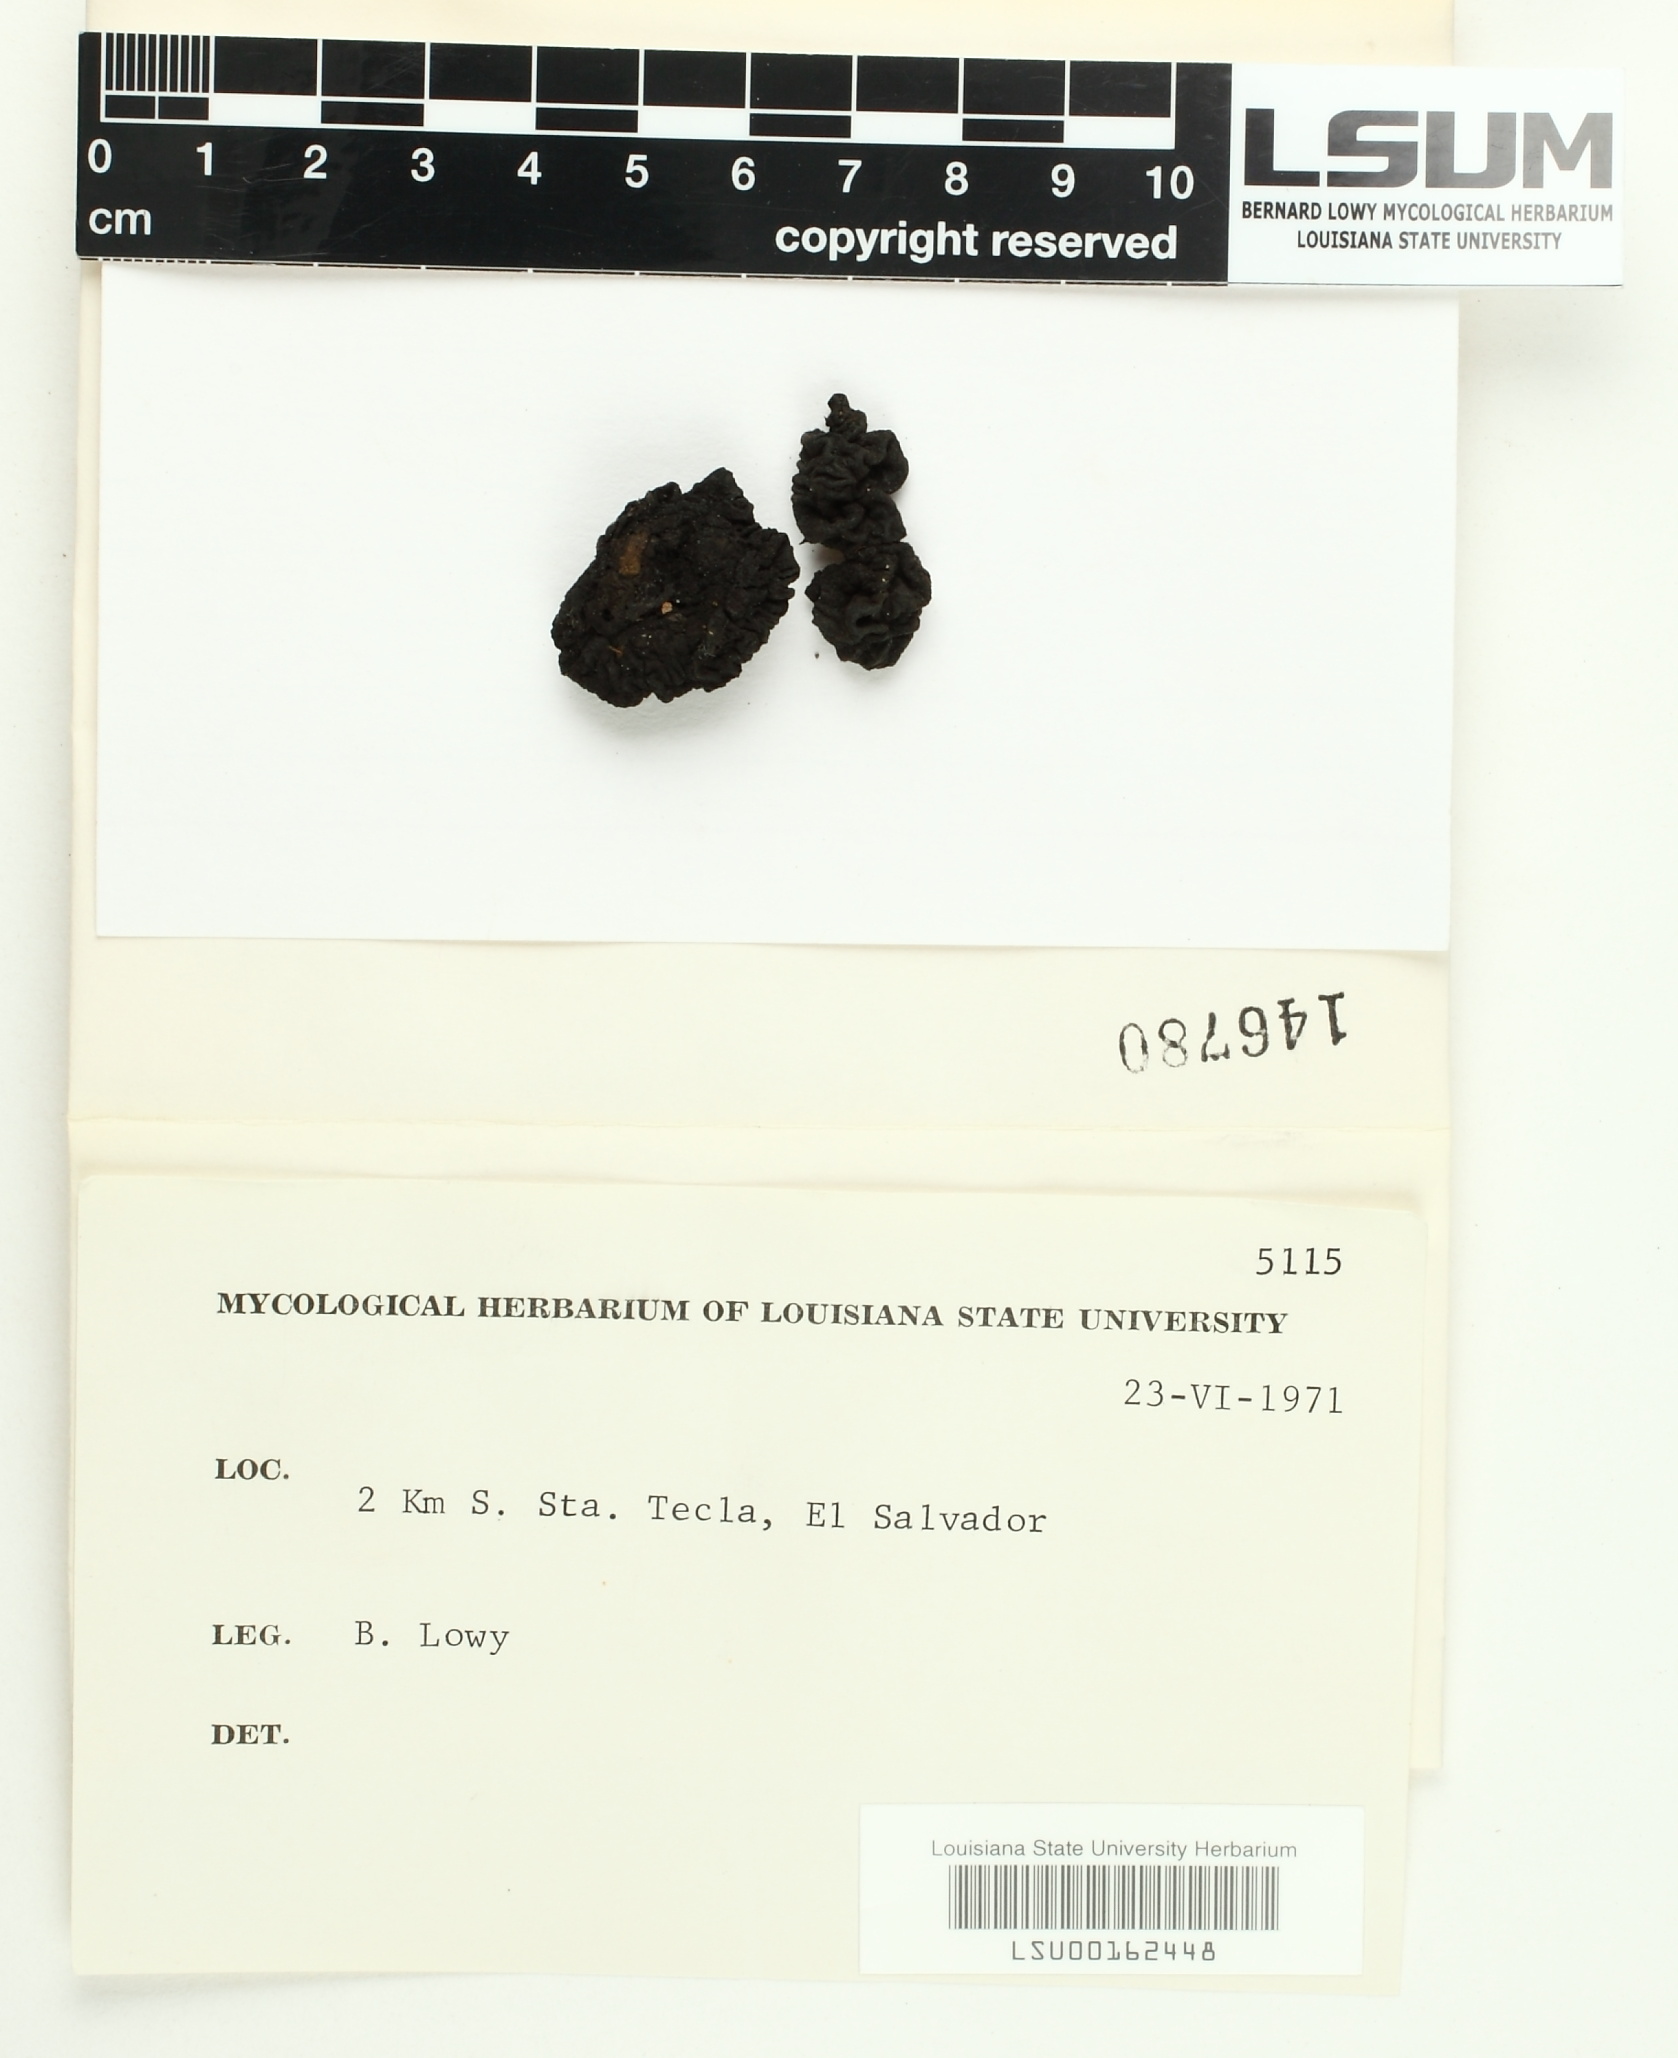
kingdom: Fungi
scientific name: Fungi
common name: Fungi
